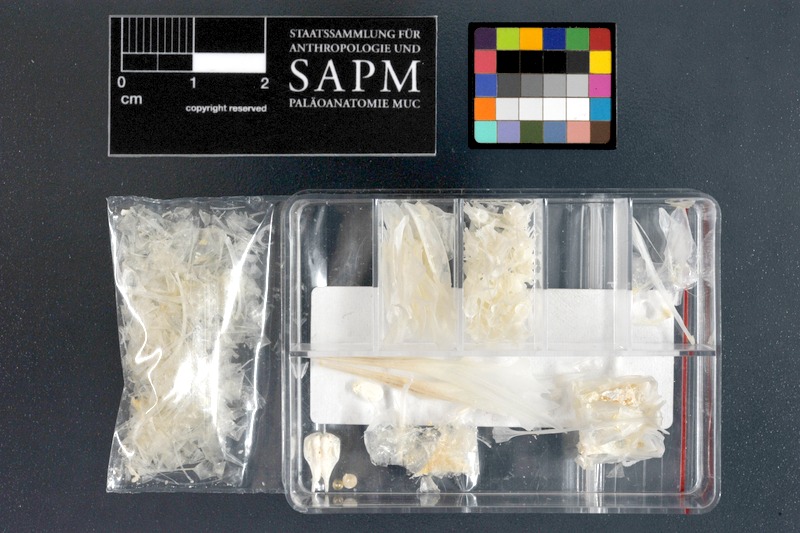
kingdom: Animalia
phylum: Chordata
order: Beloniformes
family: Hemiramphidae
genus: Hyporhamphus
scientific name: Hyporhamphus dussumieri
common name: Dussumier's halfbeak
